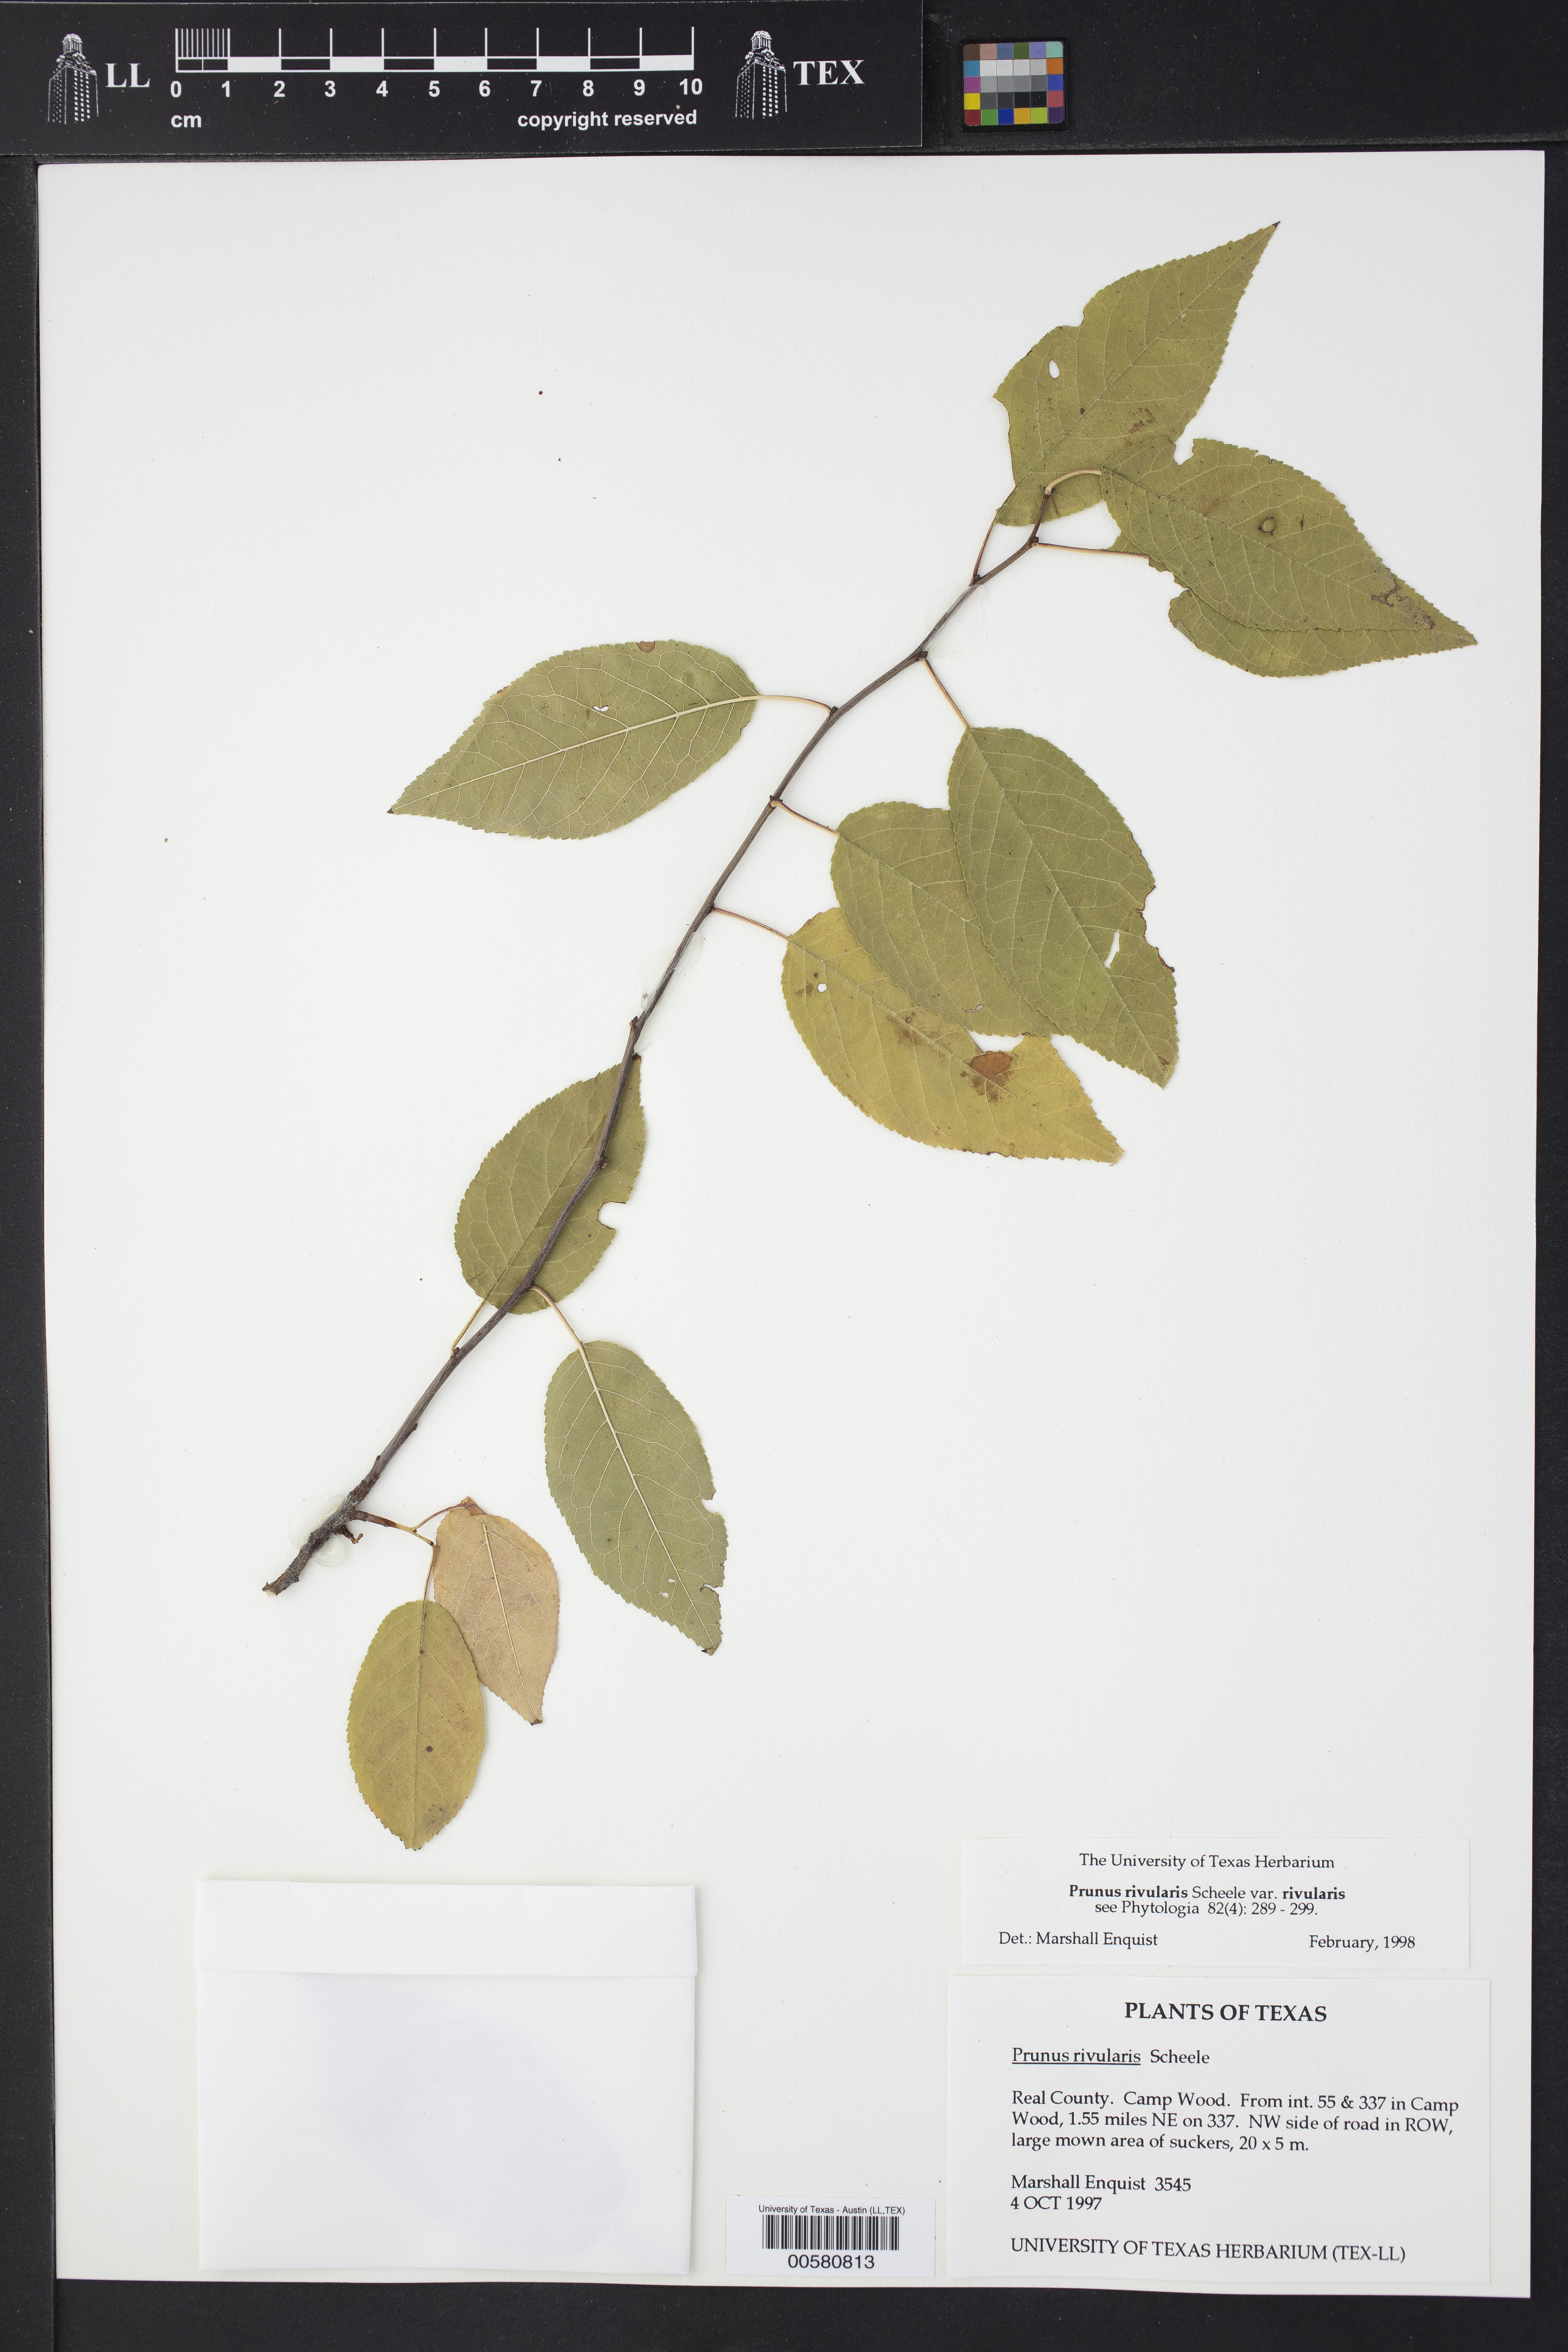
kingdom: Plantae
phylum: Tracheophyta
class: Magnoliopsida
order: Rosales
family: Rosaceae
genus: Prunus
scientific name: Prunus rivularis
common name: Creek plum
